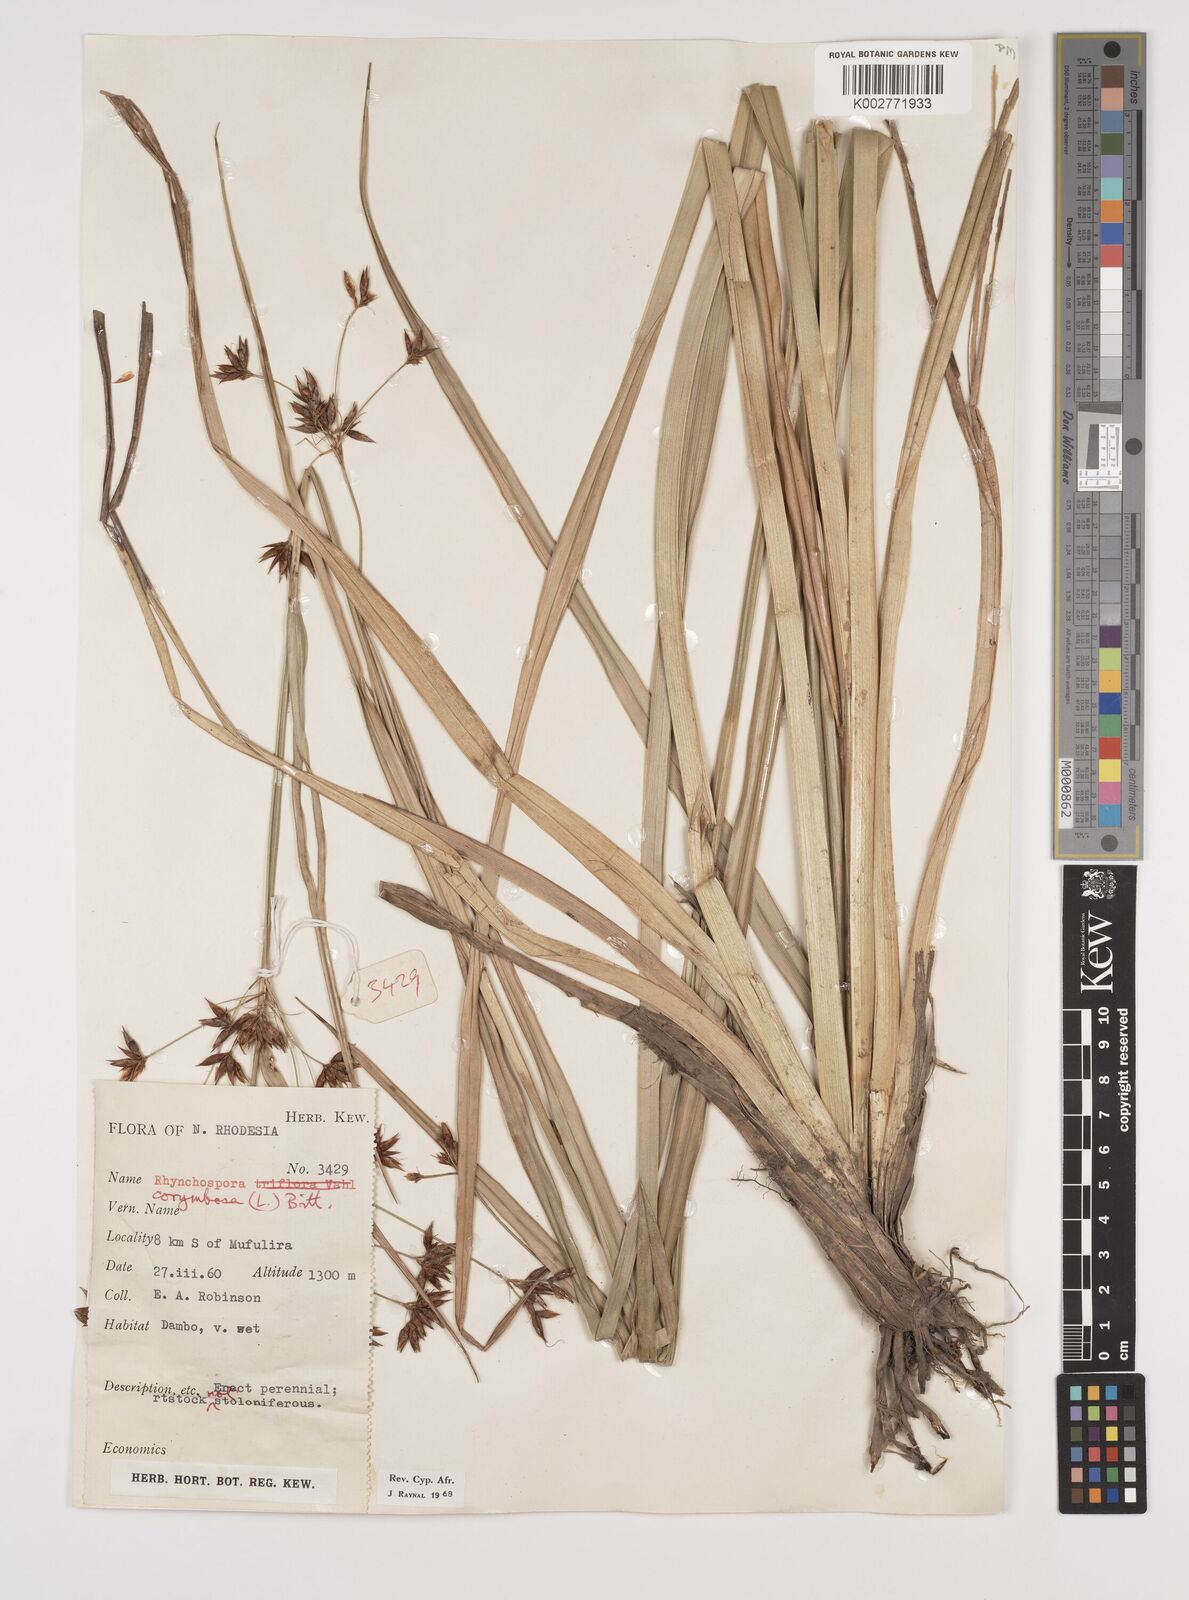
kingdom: Plantae
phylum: Tracheophyta
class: Liliopsida
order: Poales
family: Cyperaceae
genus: Rhynchospora
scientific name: Rhynchospora corymbosa
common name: Golden beak sedge
